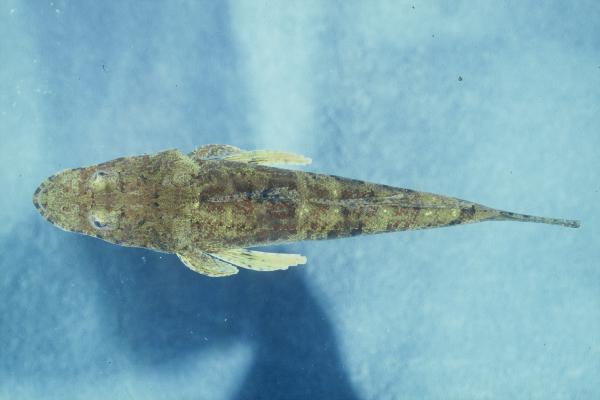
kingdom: Animalia
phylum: Chordata
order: Scorpaeniformes
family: Platycephalidae
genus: Cymbacephalus
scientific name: Cymbacephalus nematophthalmus
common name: Fringe-eyed flathead
